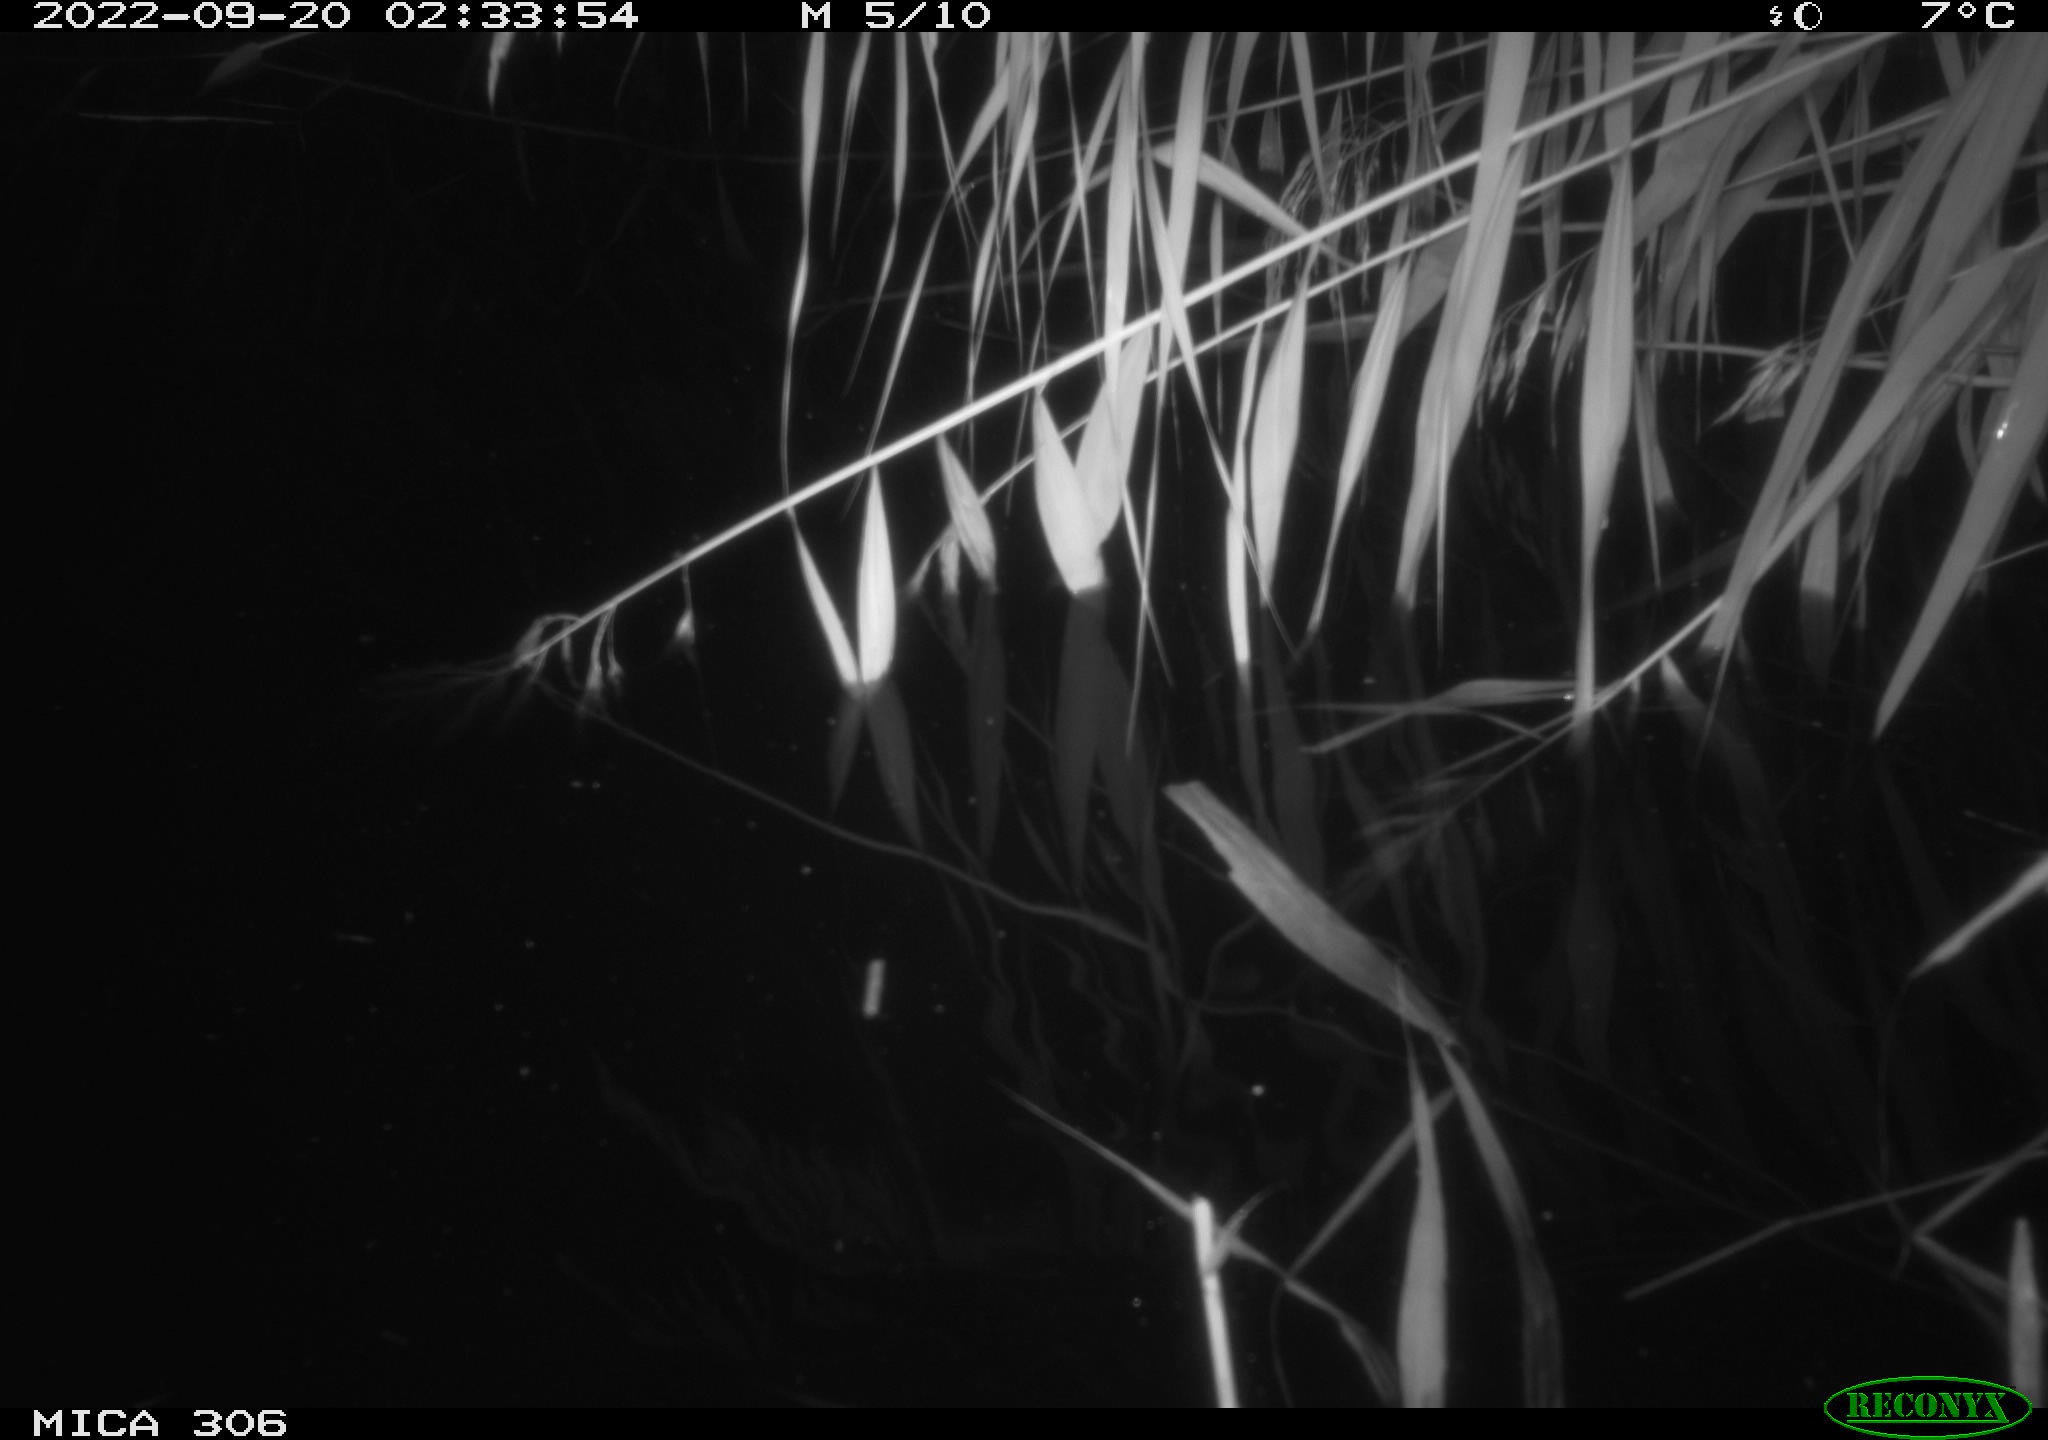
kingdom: Animalia
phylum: Chordata
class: Mammalia
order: Rodentia
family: Muridae
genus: Rattus
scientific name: Rattus norvegicus
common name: Brown rat
